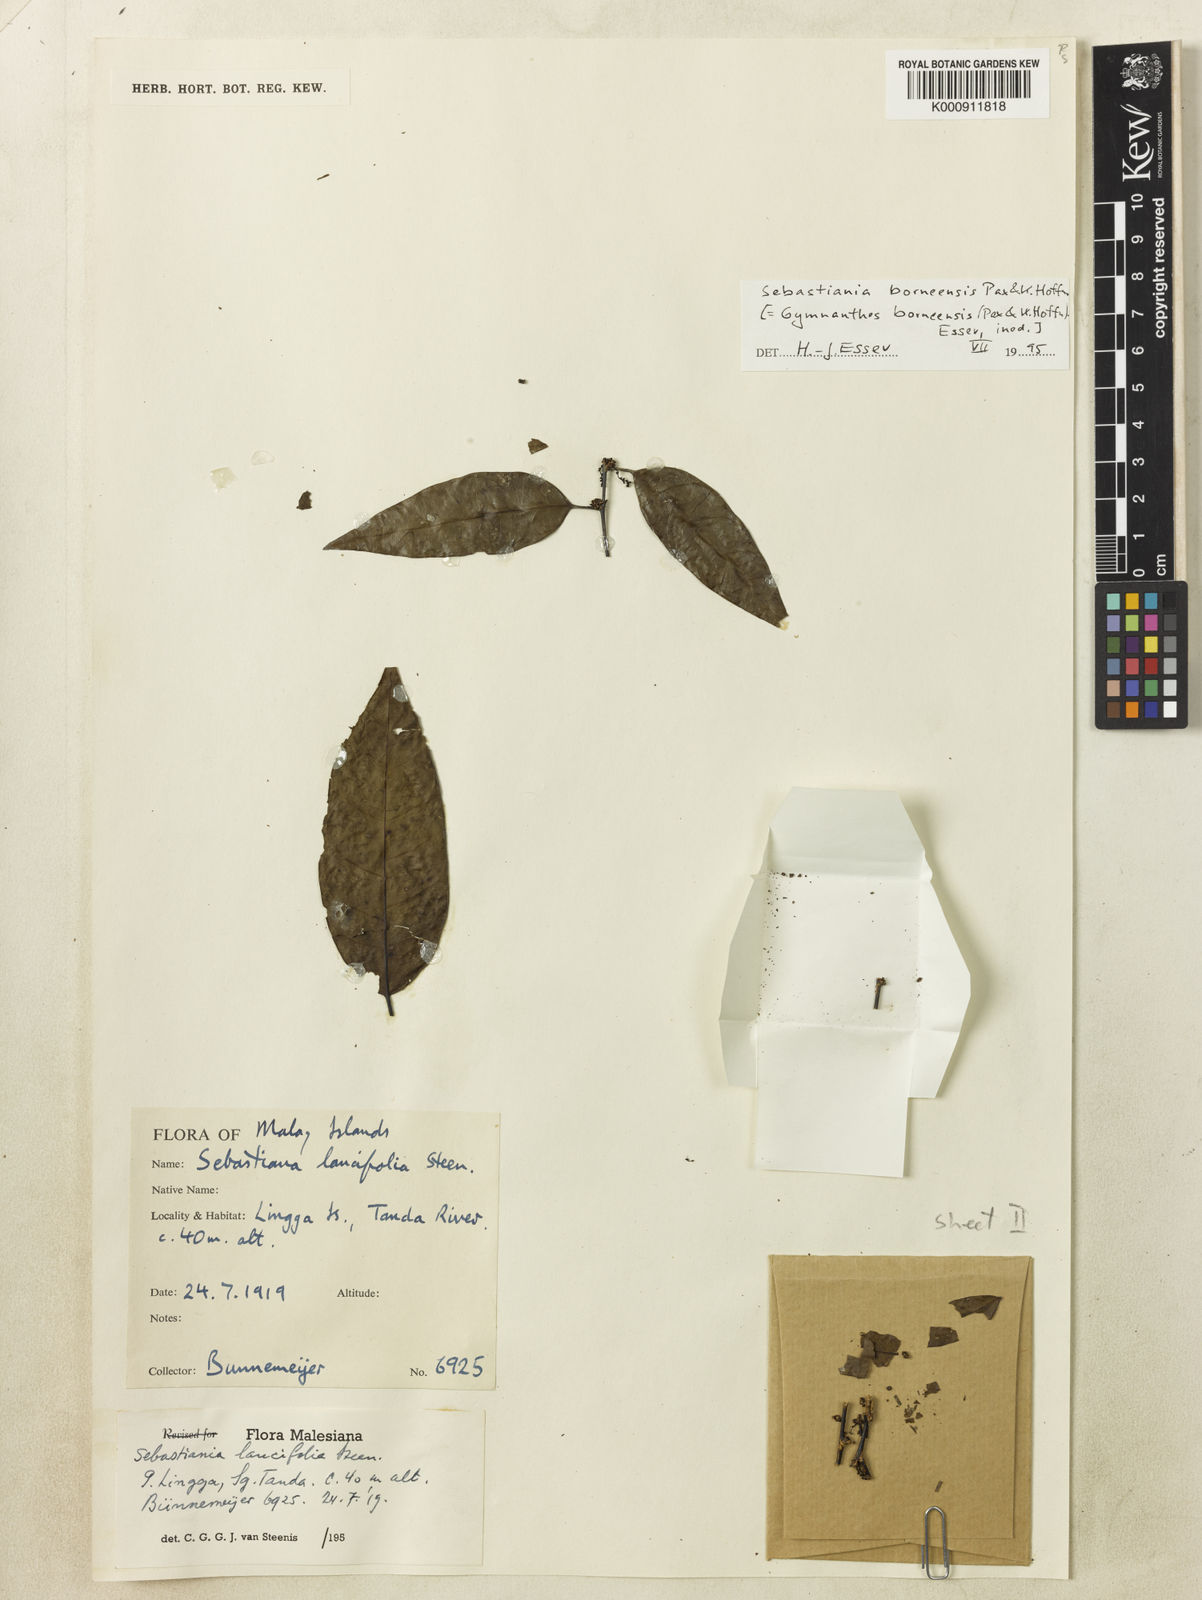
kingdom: Plantae
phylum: Tracheophyta
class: Magnoliopsida
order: Malpighiales
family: Euphorbiaceae
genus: Gymnanthes
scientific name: Gymnanthes borneensis
